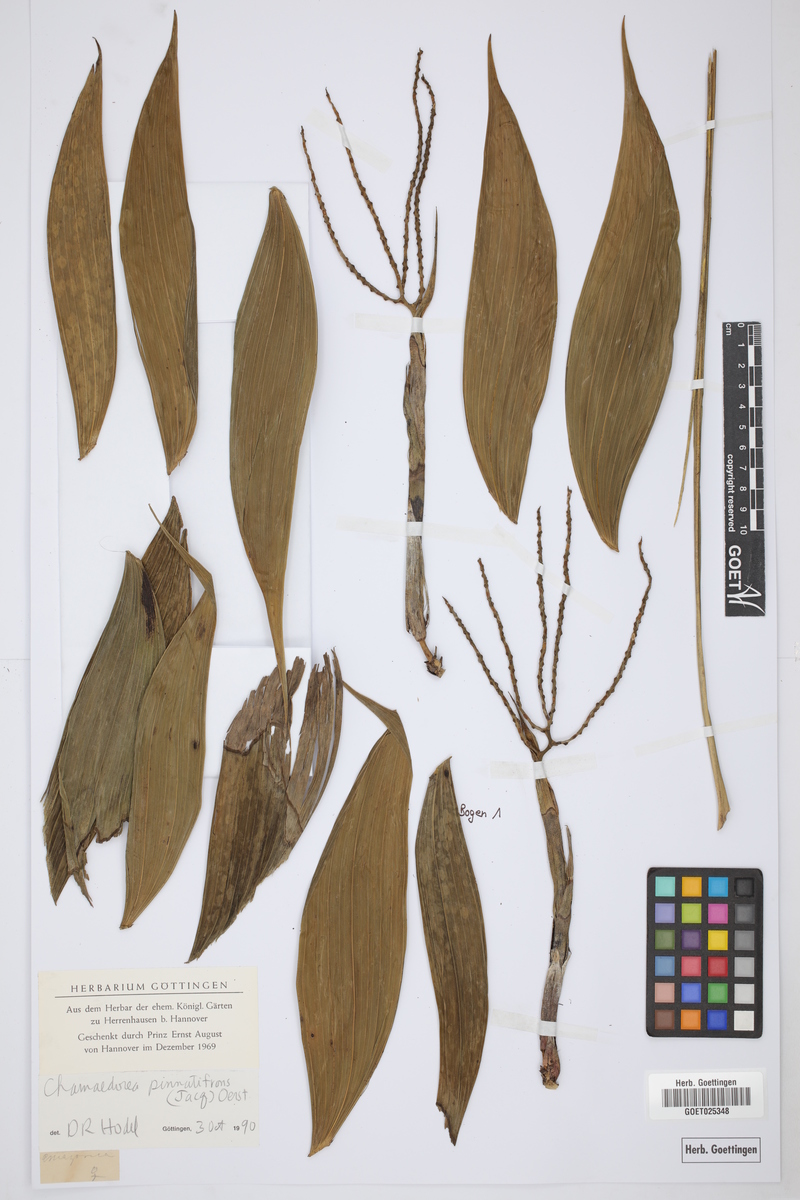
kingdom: Plantae
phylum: Tracheophyta
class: Liliopsida
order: Arecales
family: Arecaceae
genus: Chamaedorea
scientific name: Chamaedorea pinnatifrons
